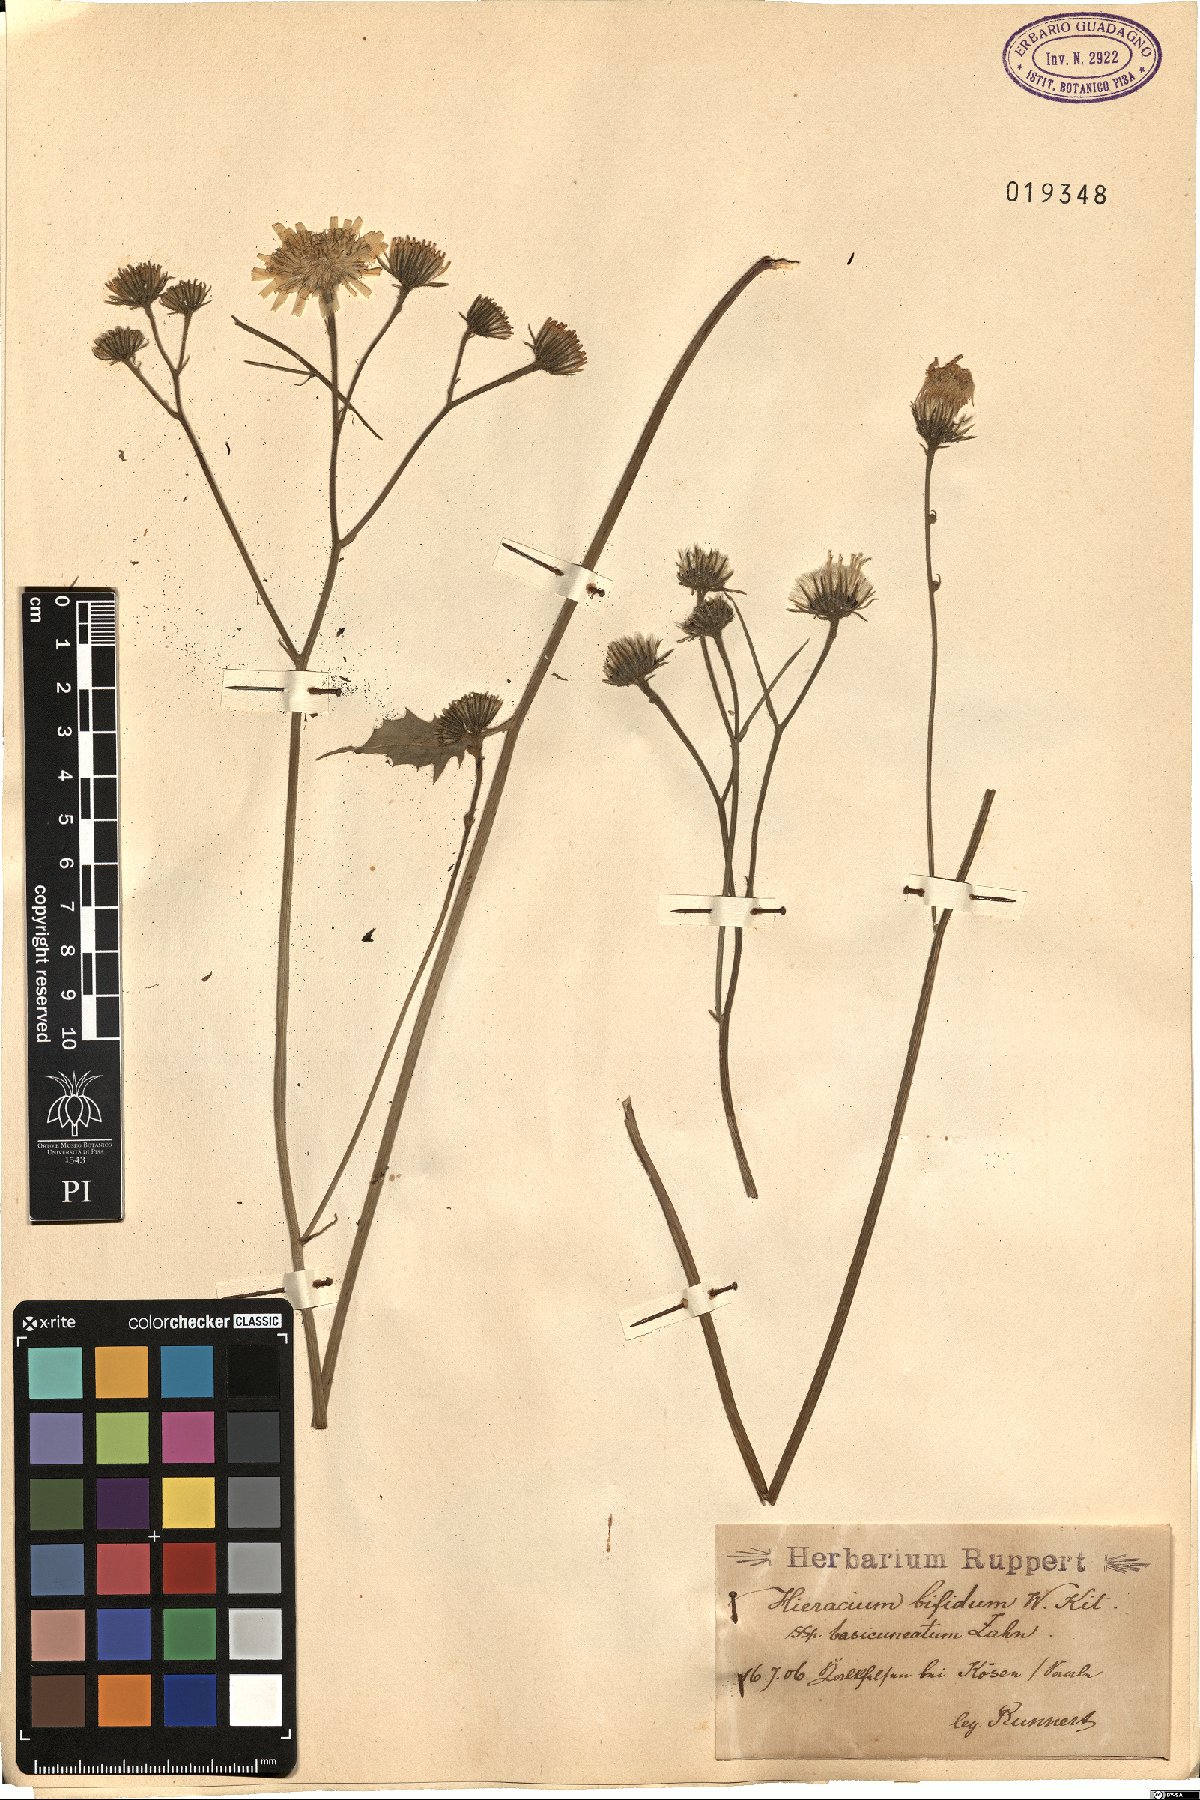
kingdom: Plantae
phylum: Tracheophyta
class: Magnoliopsida
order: Asterales
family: Asteraceae
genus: Hieracium
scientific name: Hieracium bifidum
